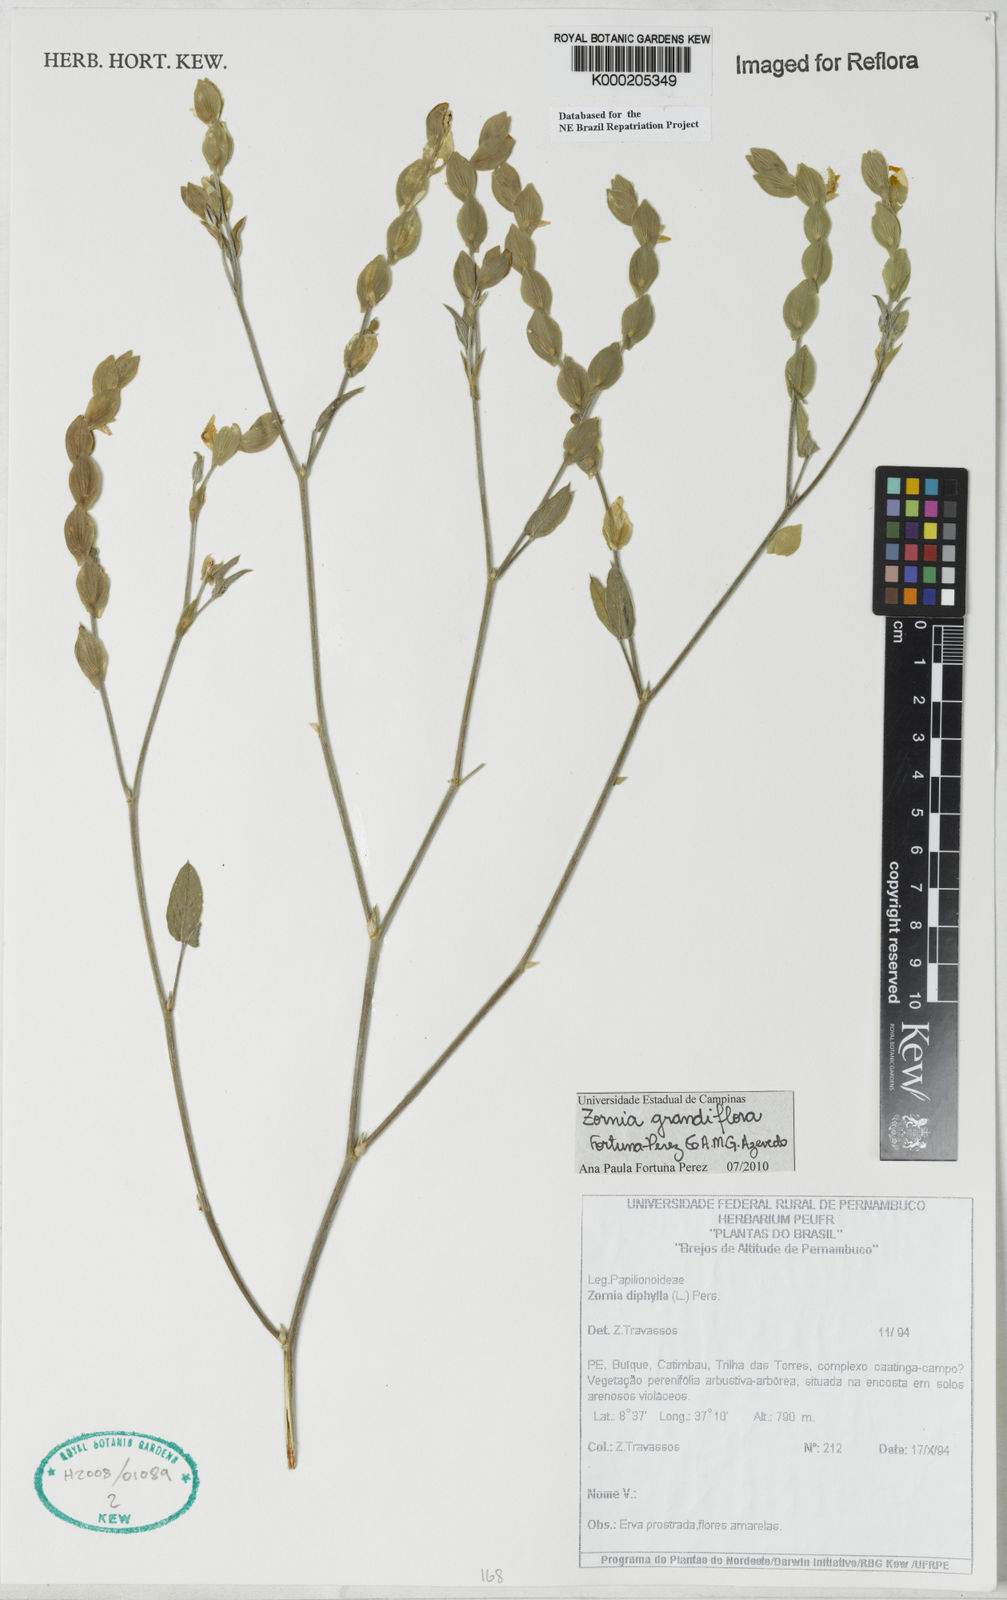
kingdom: Plantae
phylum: Tracheophyta
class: Magnoliopsida
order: Fabales
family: Fabaceae
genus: Zornia
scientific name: Zornia diphylla
